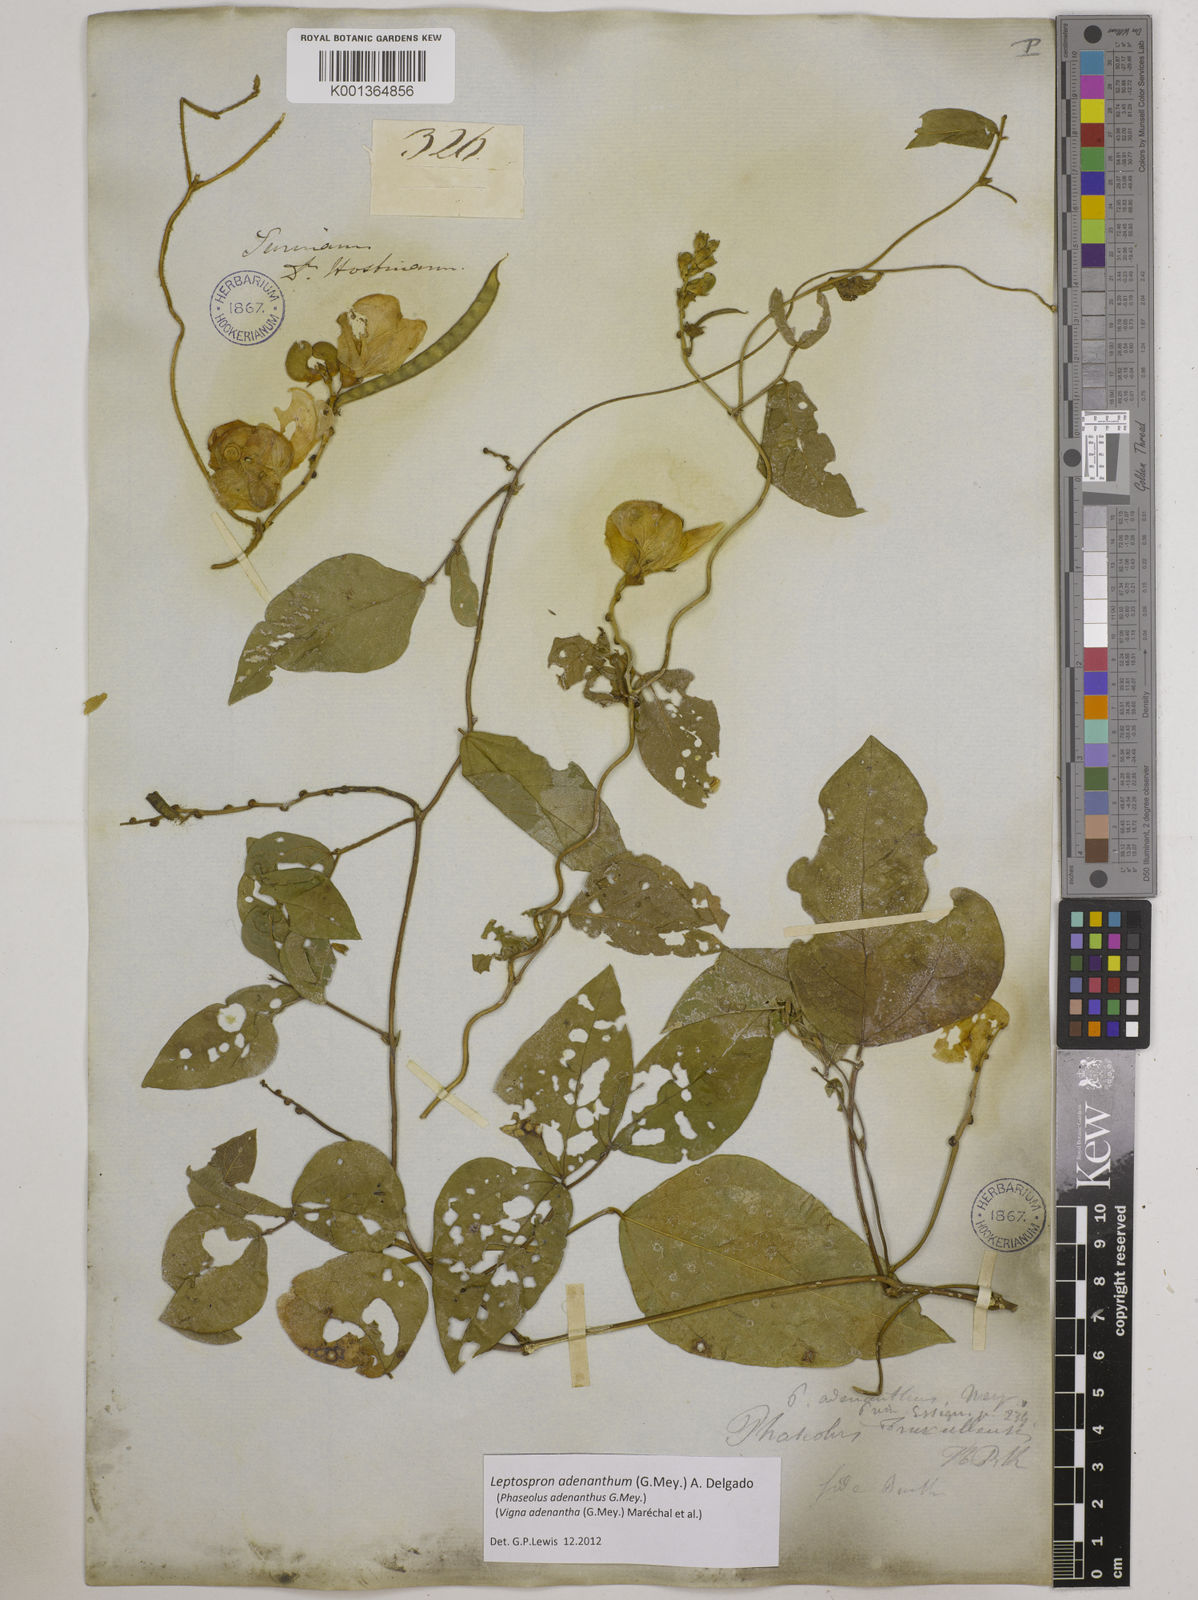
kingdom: Plantae
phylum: Tracheophyta
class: Magnoliopsida
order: Fabales
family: Fabaceae
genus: Leptospron
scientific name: Leptospron adenanthum
